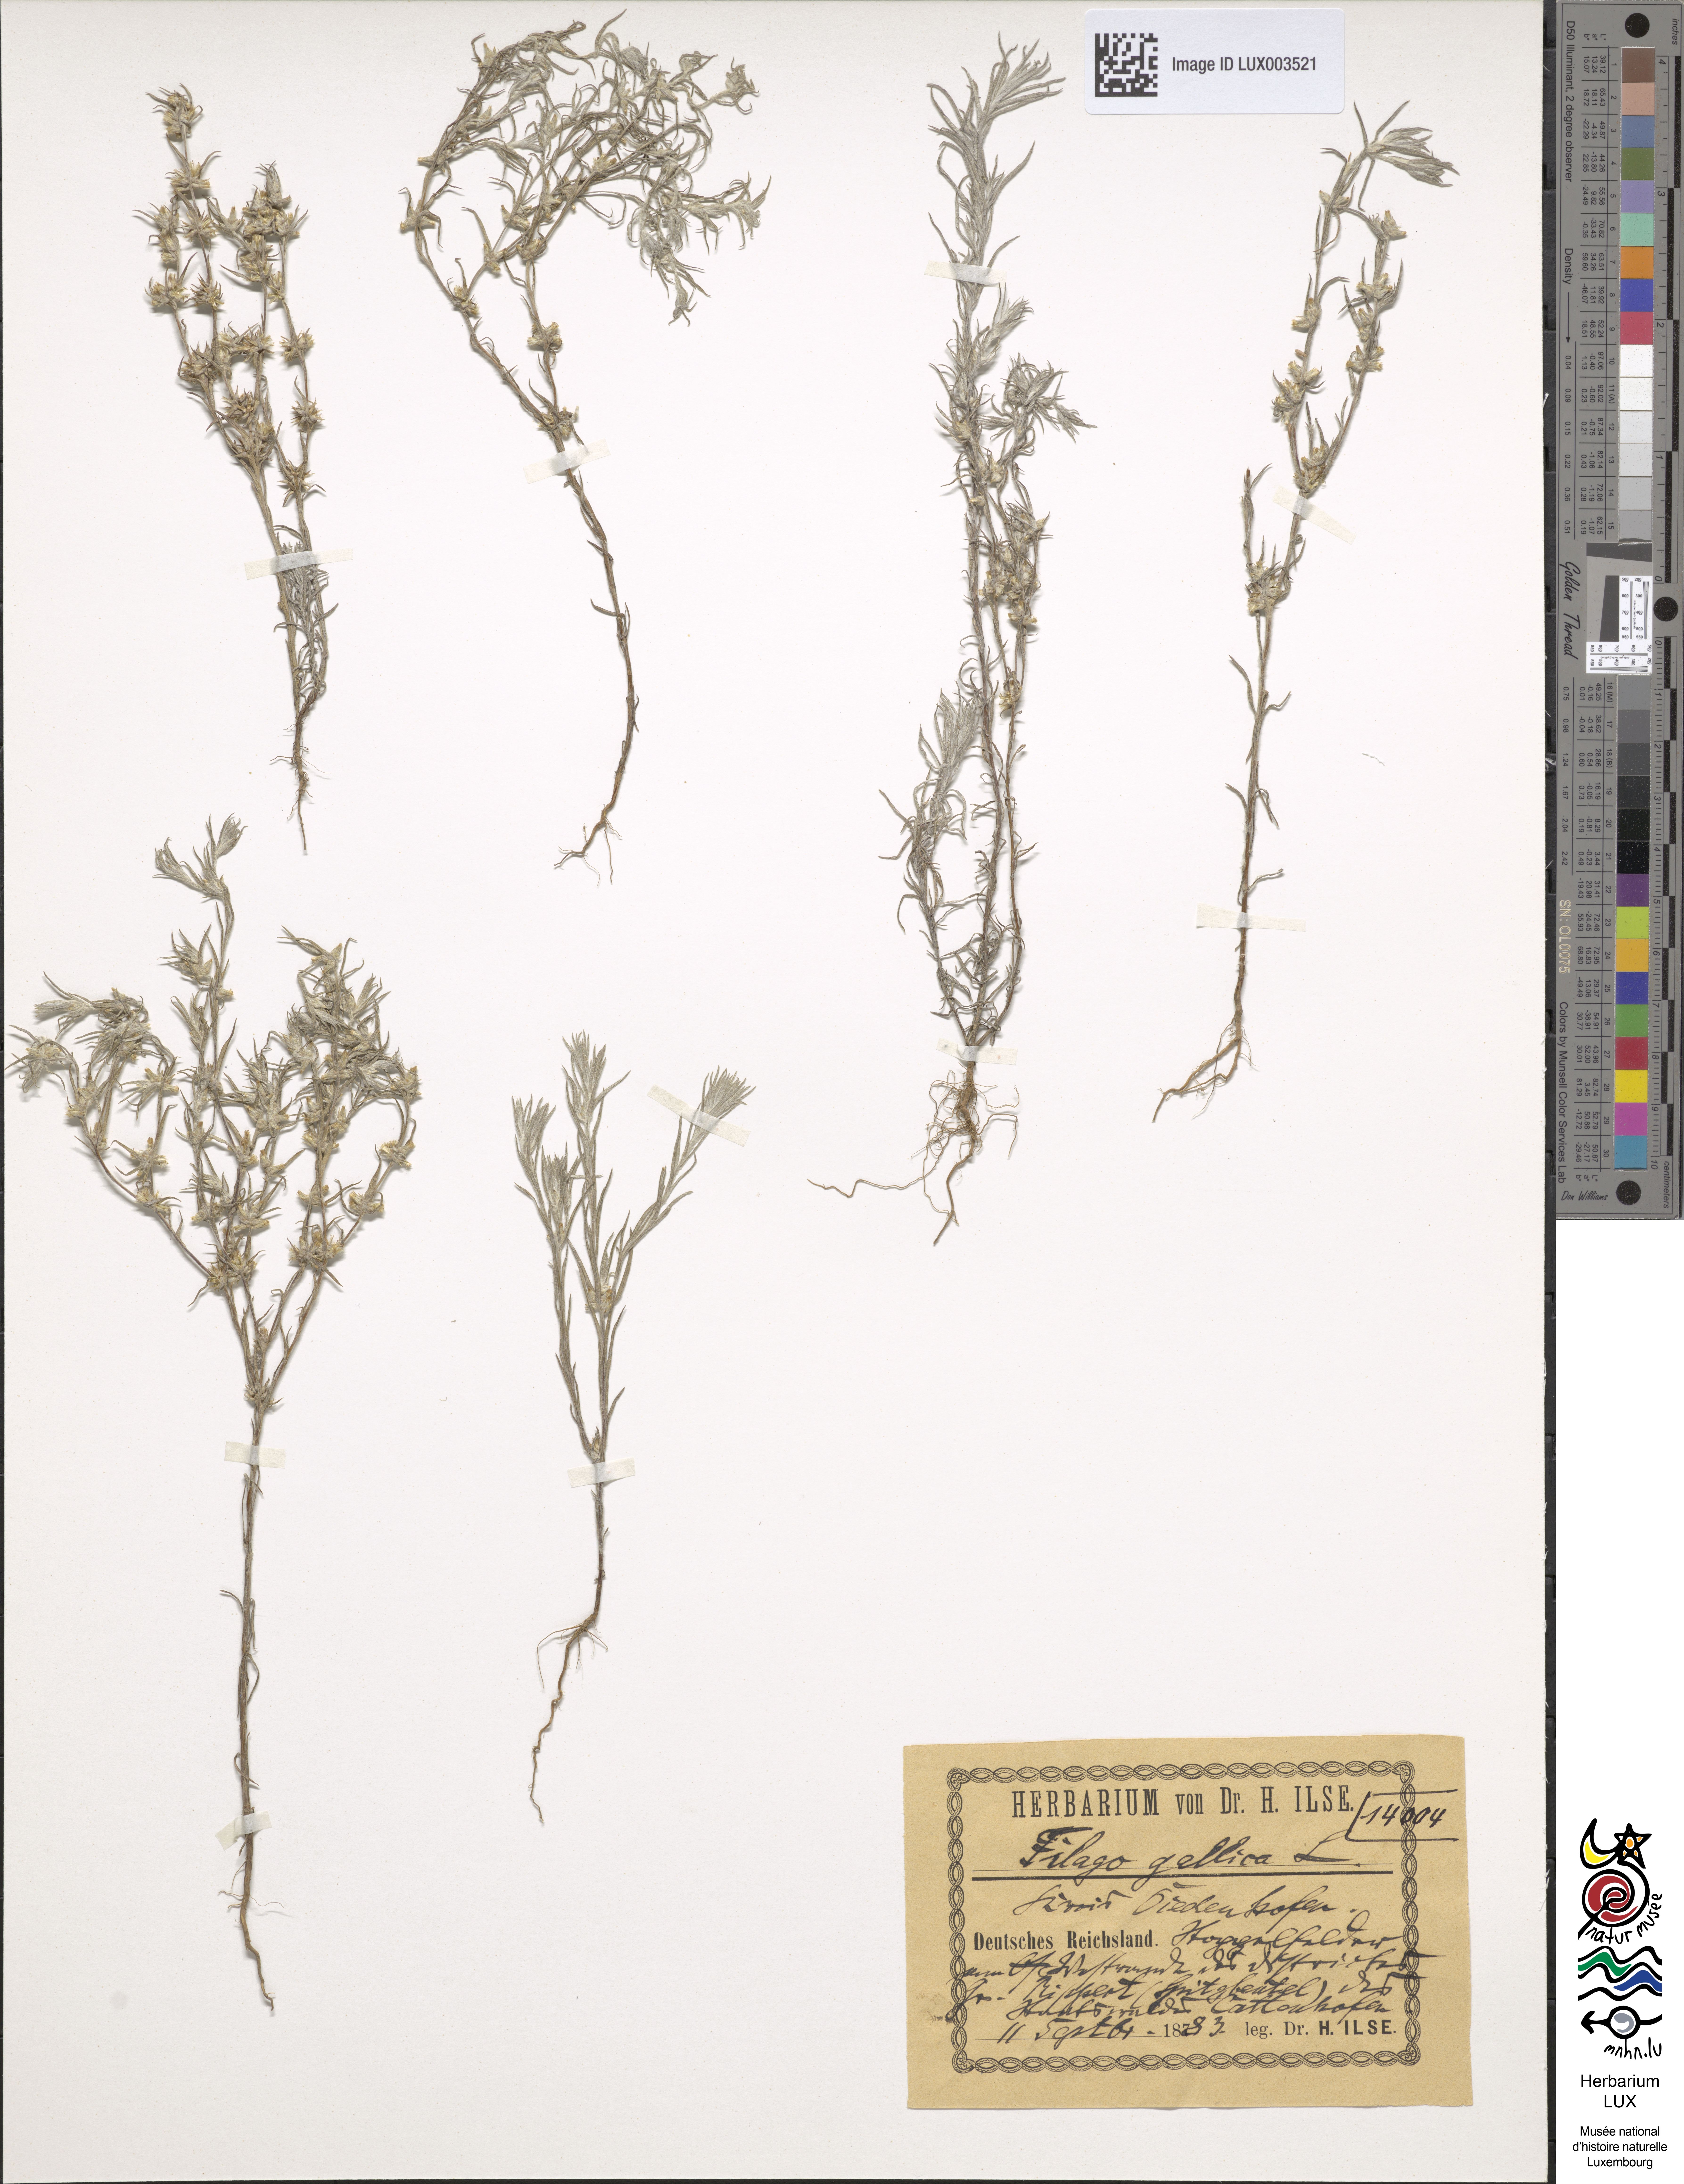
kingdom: Plantae
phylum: Tracheophyta
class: Magnoliopsida
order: Asterales
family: Asteraceae
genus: Logfia
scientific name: Logfia gallica
